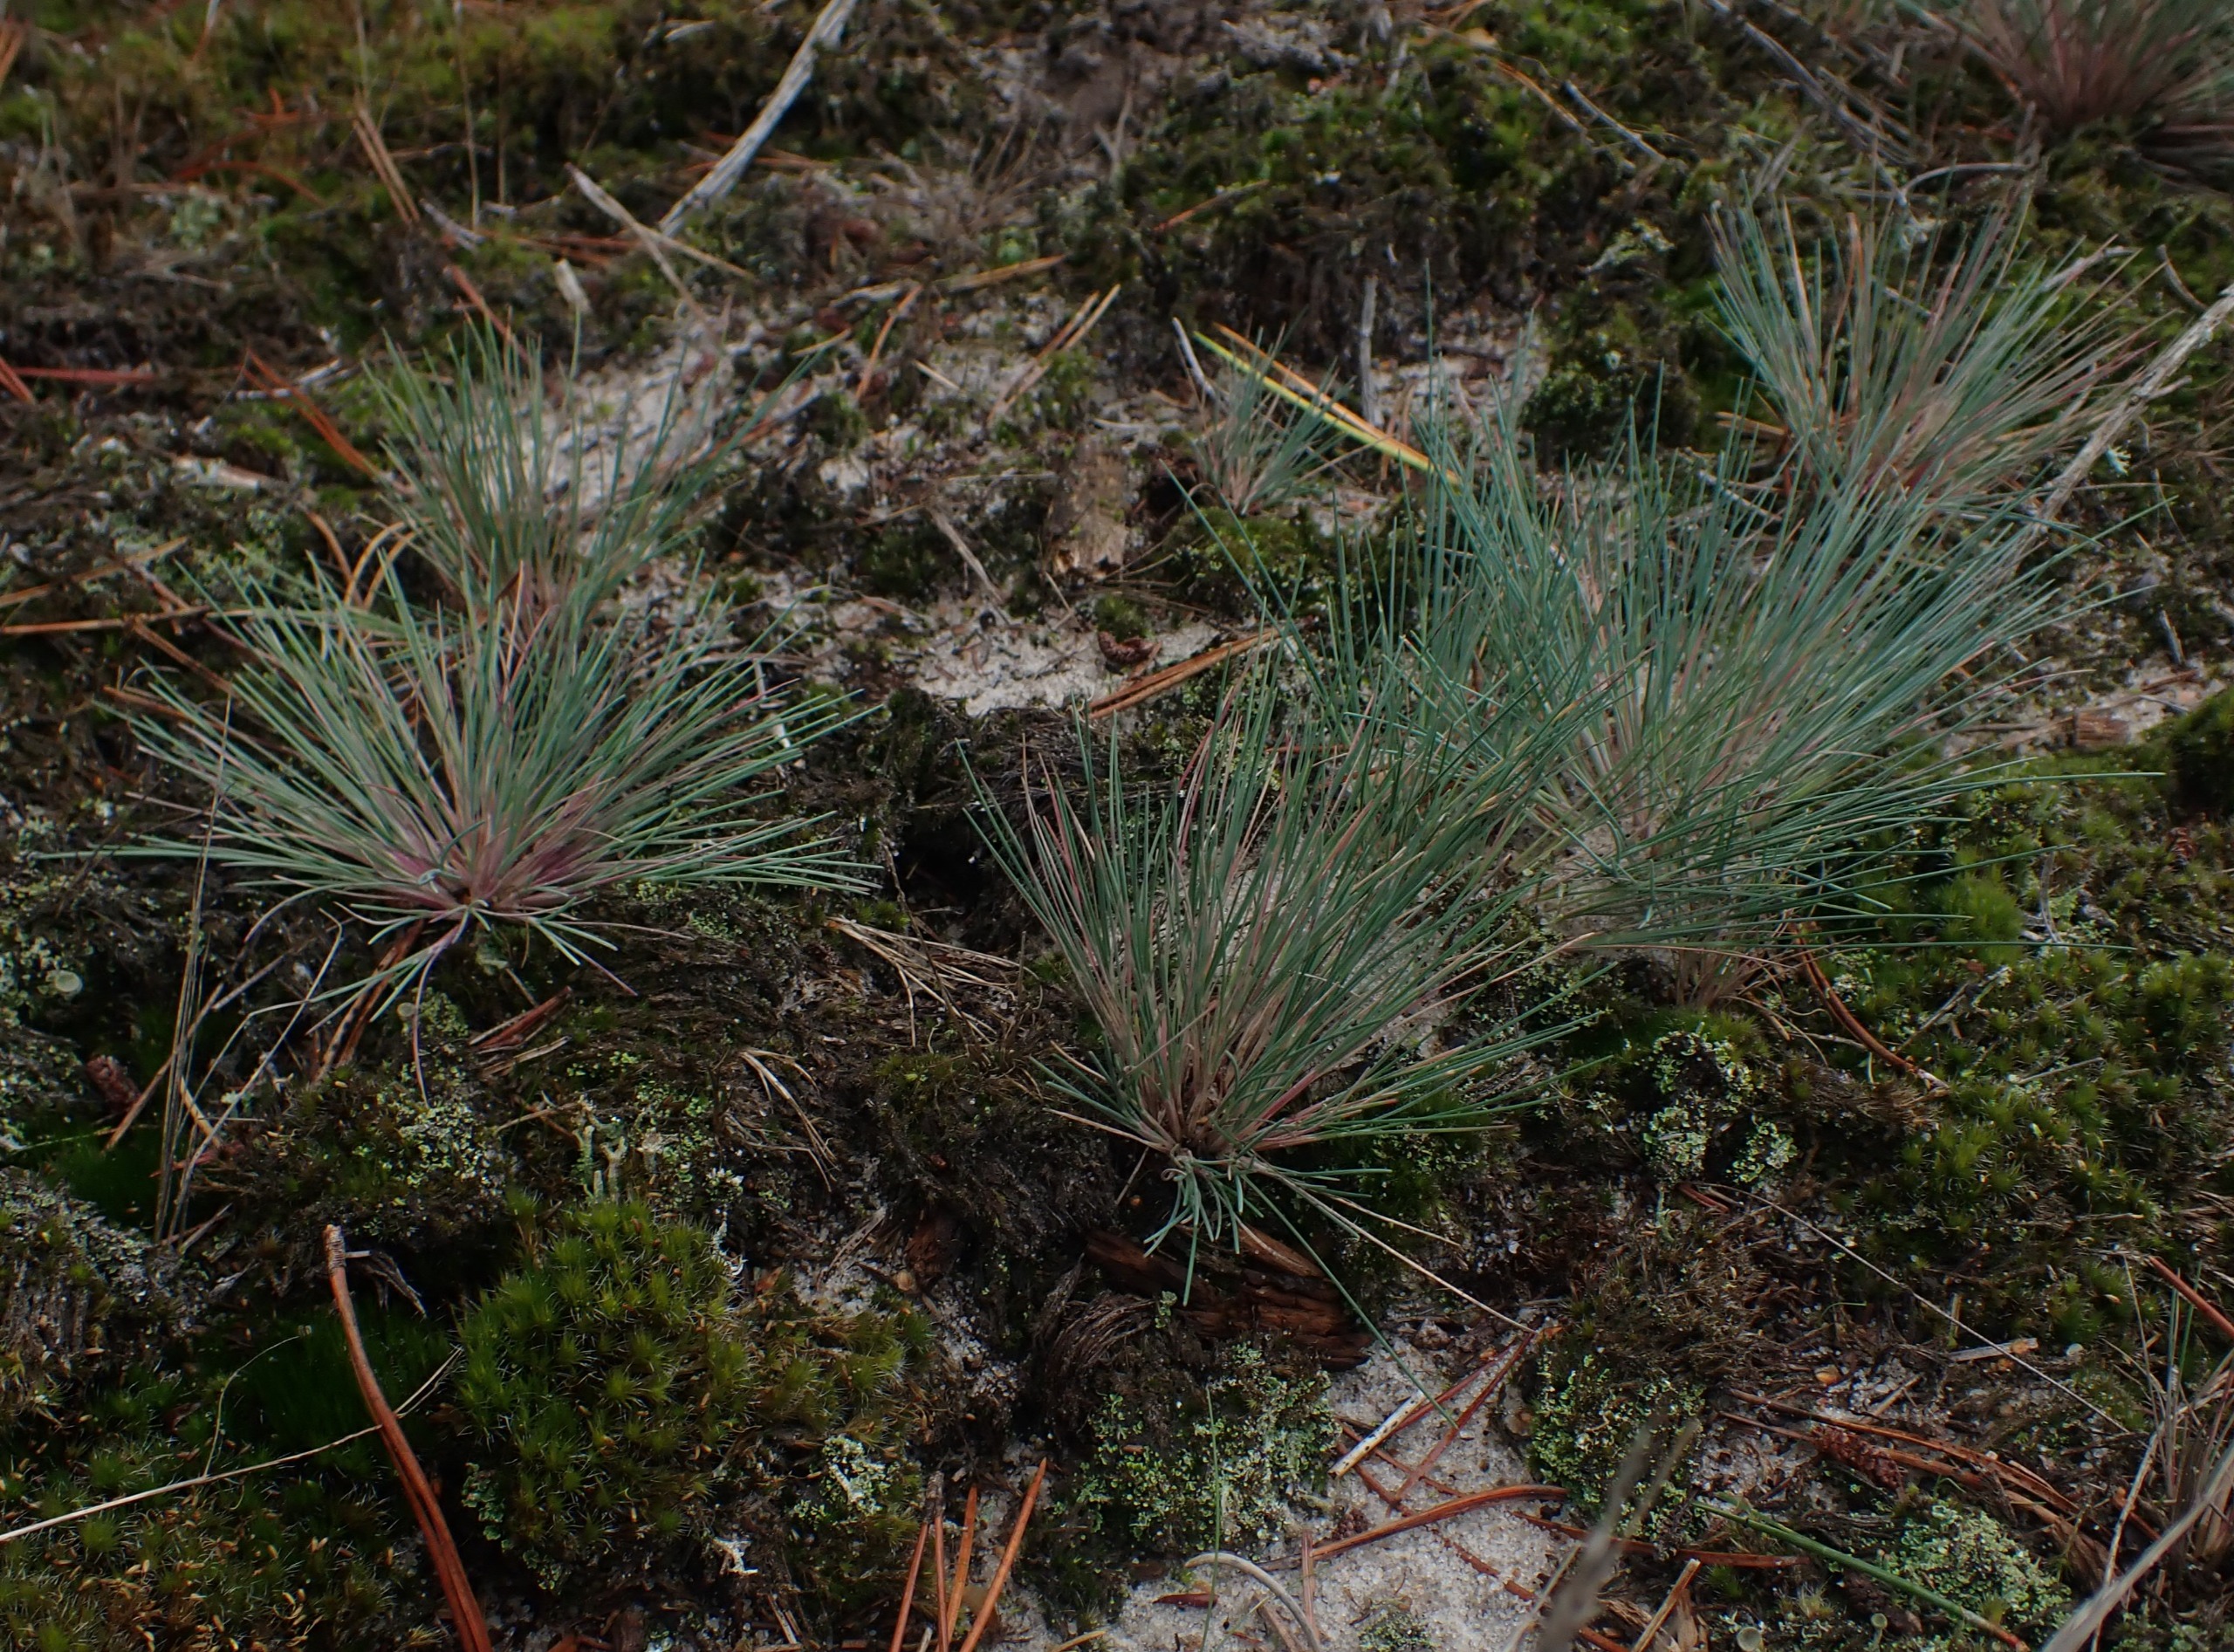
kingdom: Plantae
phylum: Tracheophyta
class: Liliopsida
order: Poales
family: Poaceae
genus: Corynephorus
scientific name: Corynephorus canescens
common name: Sandskæg
